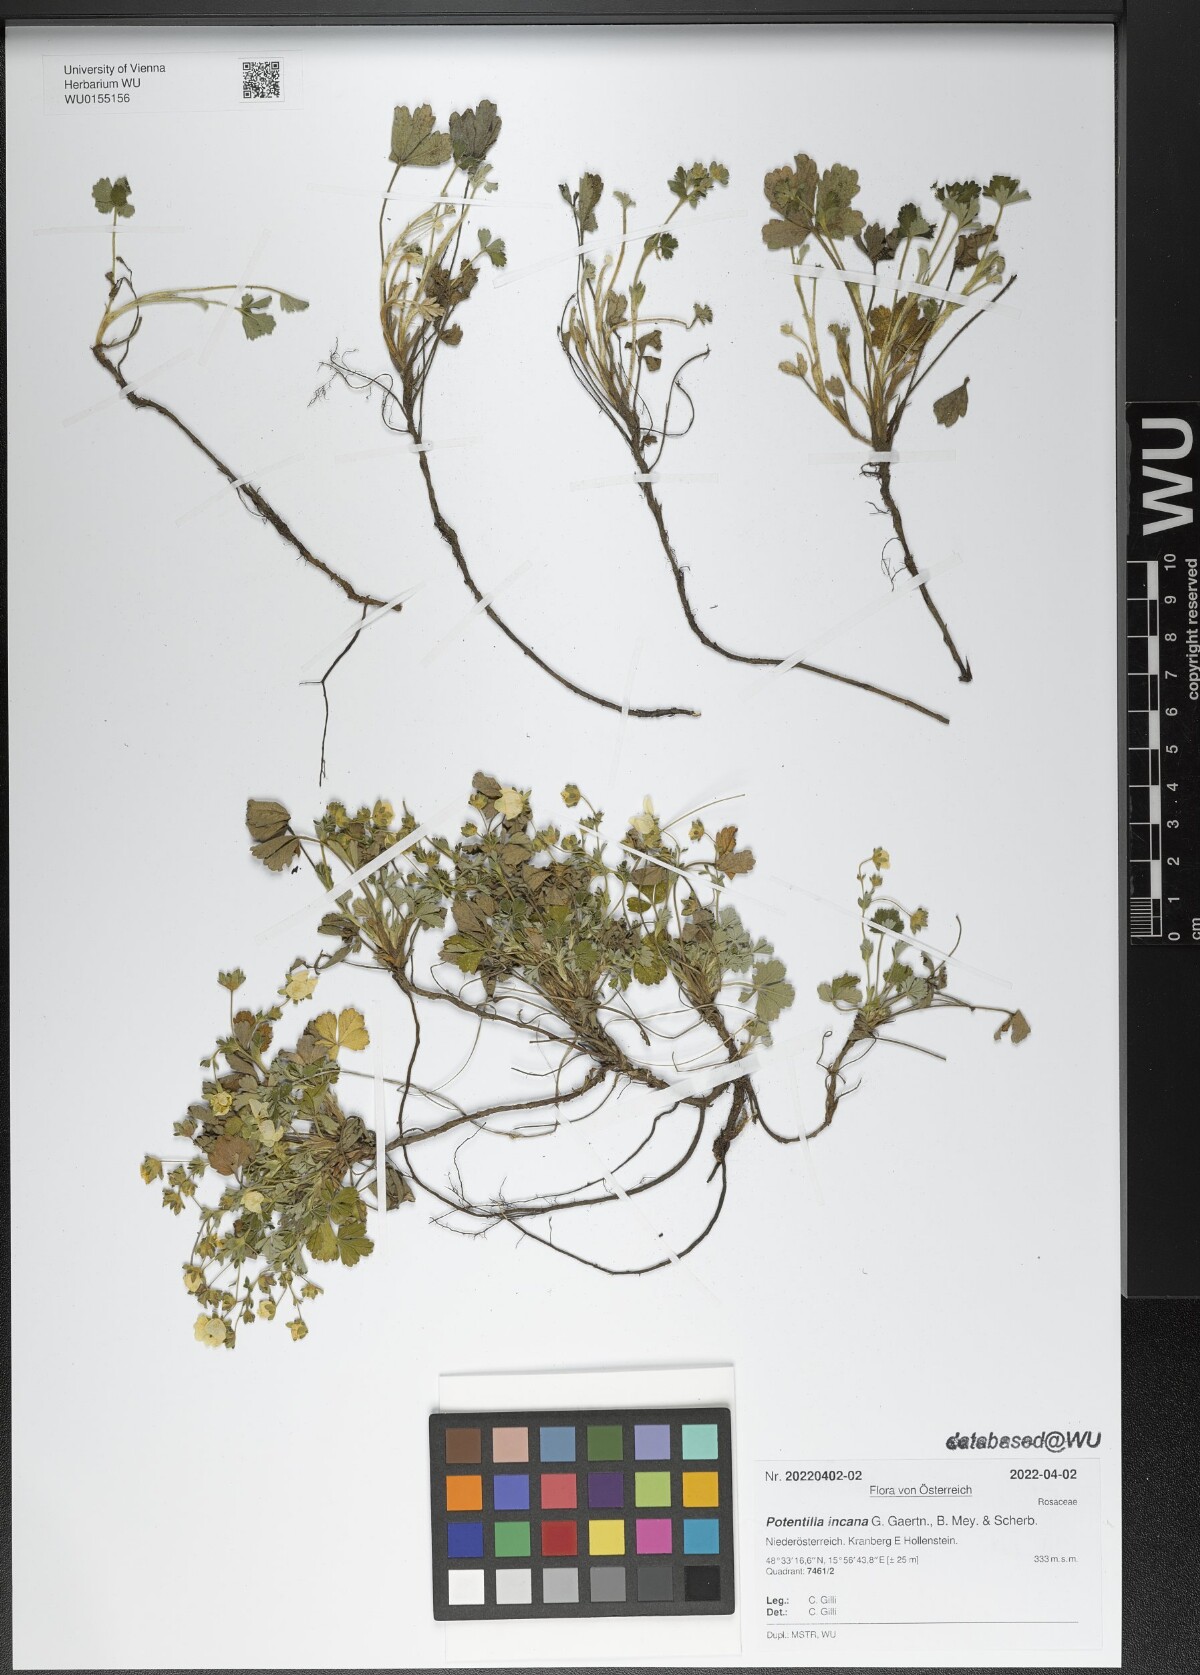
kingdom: Plantae
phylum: Tracheophyta
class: Magnoliopsida
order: Rosales
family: Rosaceae
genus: Potentilla
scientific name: Potentilla cinerea
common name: Ashy cinquefoil
